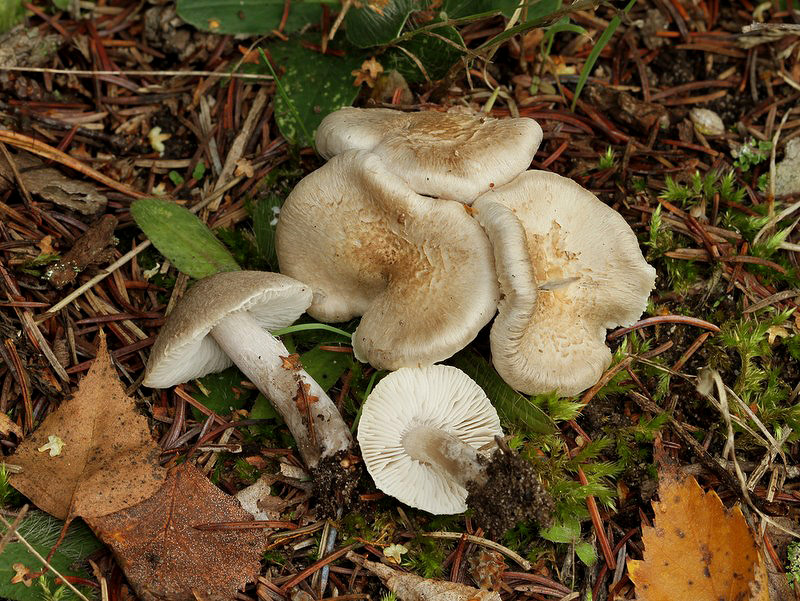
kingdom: Fungi
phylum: Basidiomycota
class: Agaricomycetes
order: Agaricales
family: Tricholomataceae
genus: Tricholoma
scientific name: Tricholoma argyraceum
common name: slør-ridderhat
